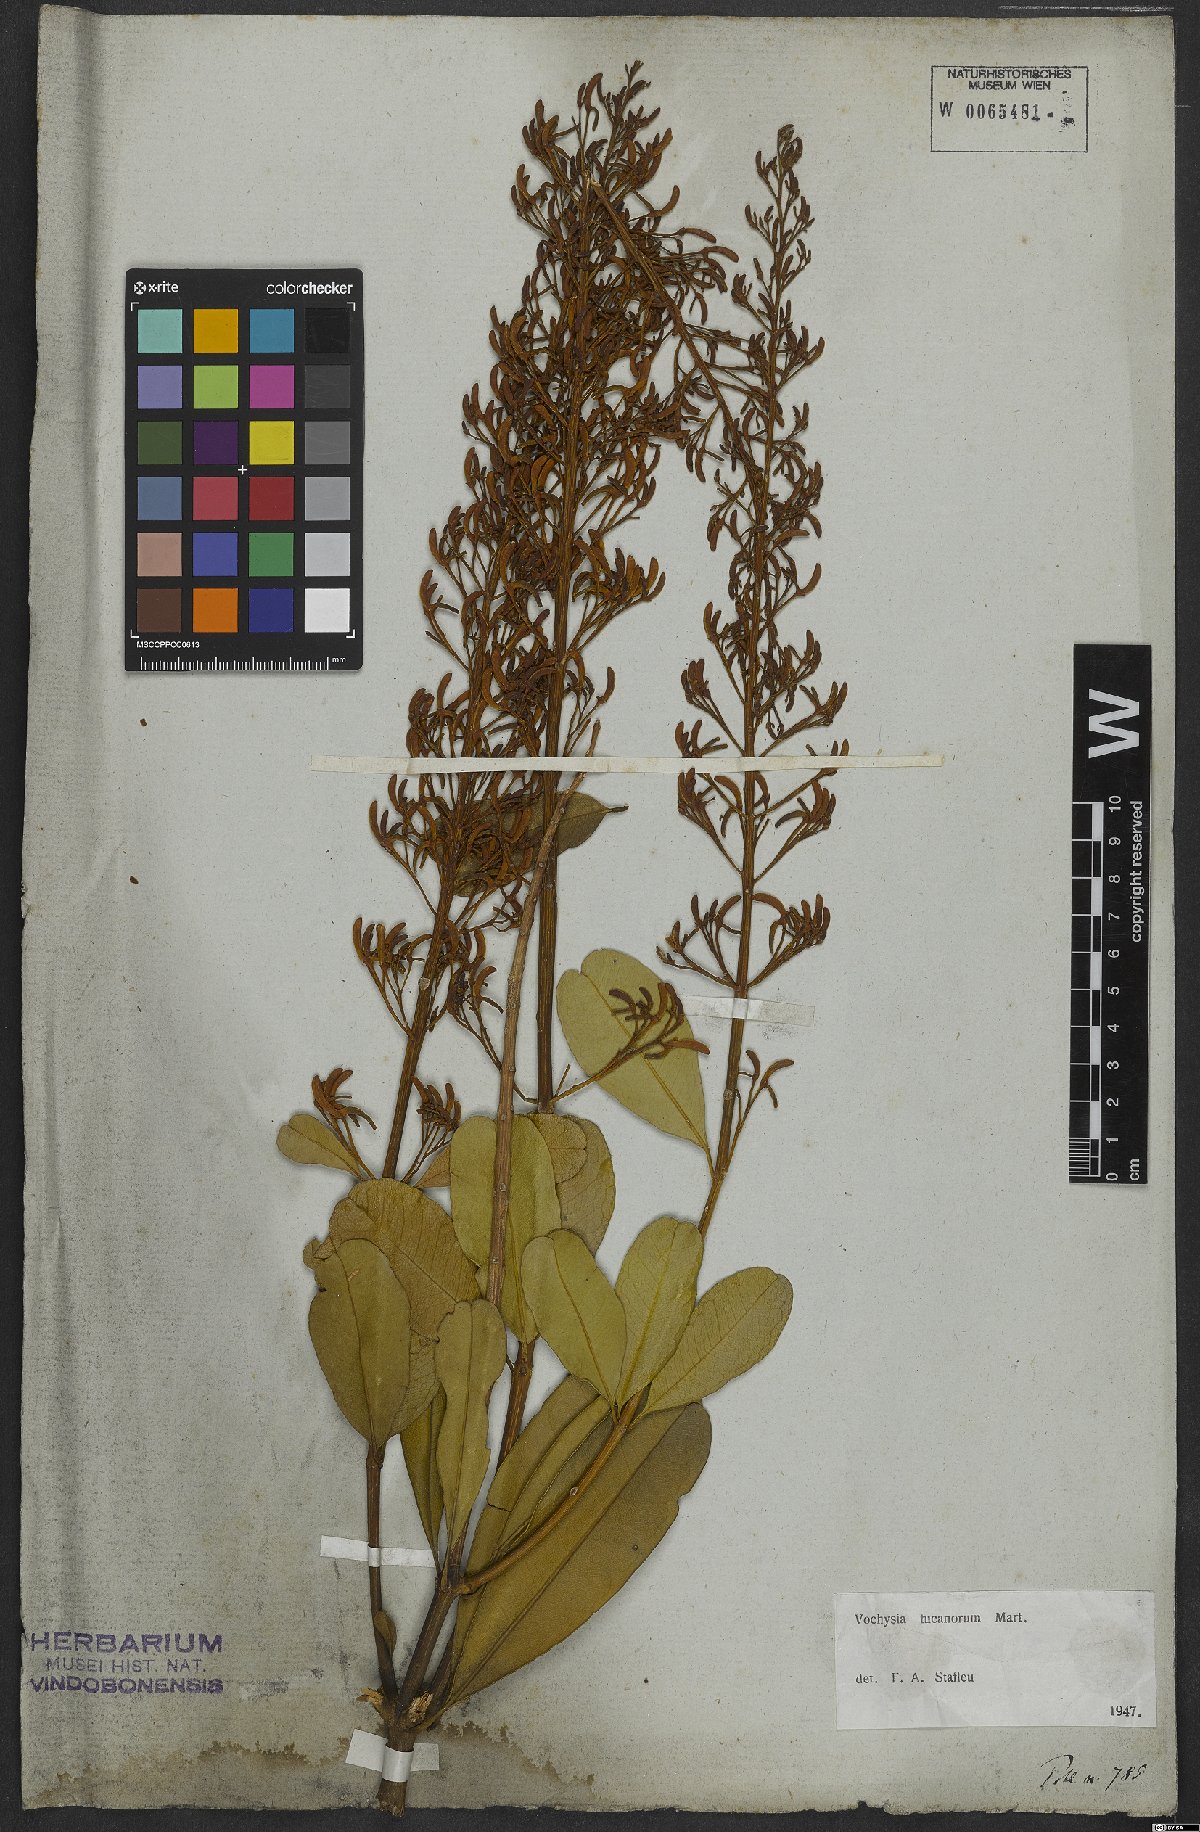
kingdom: Plantae
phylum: Tracheophyta
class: Magnoliopsida
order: Myrtales
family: Vochysiaceae
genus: Vochysia
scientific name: Vochysia tucanorum
